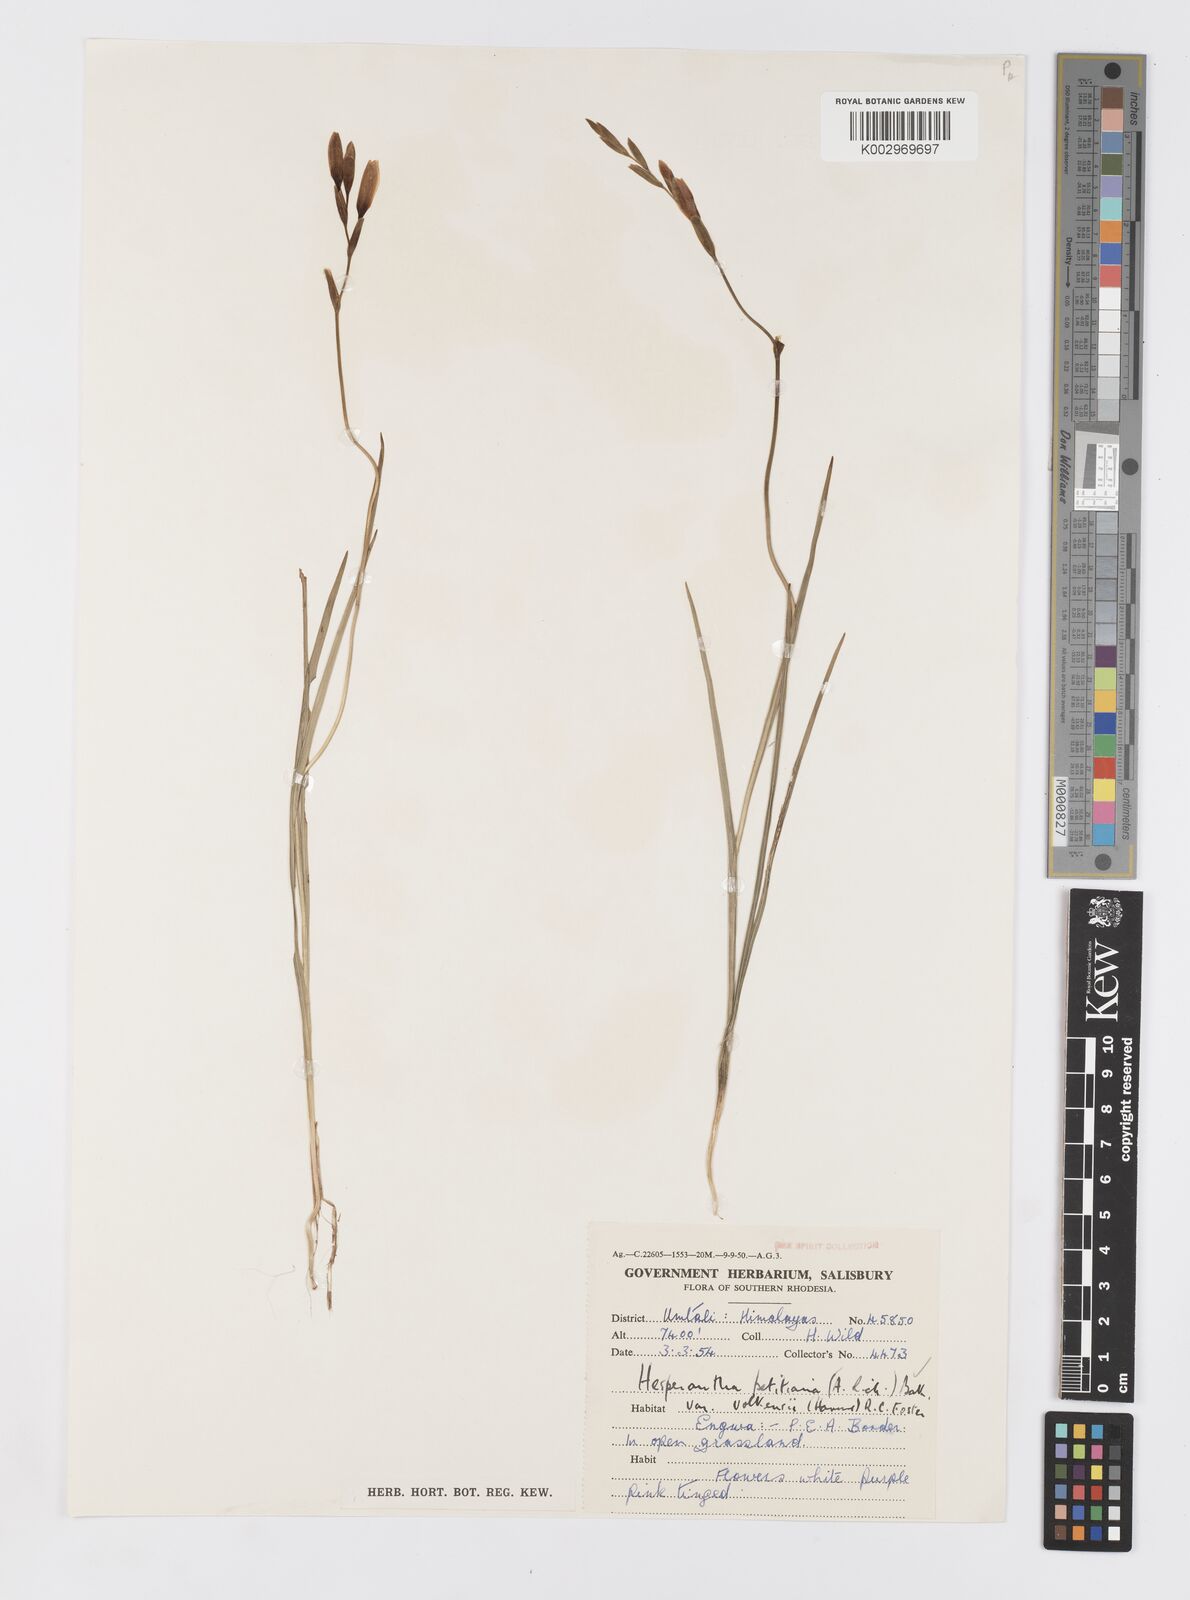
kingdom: Plantae
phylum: Tracheophyta
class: Liliopsida
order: Asparagales
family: Iridaceae
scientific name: Iridaceae
